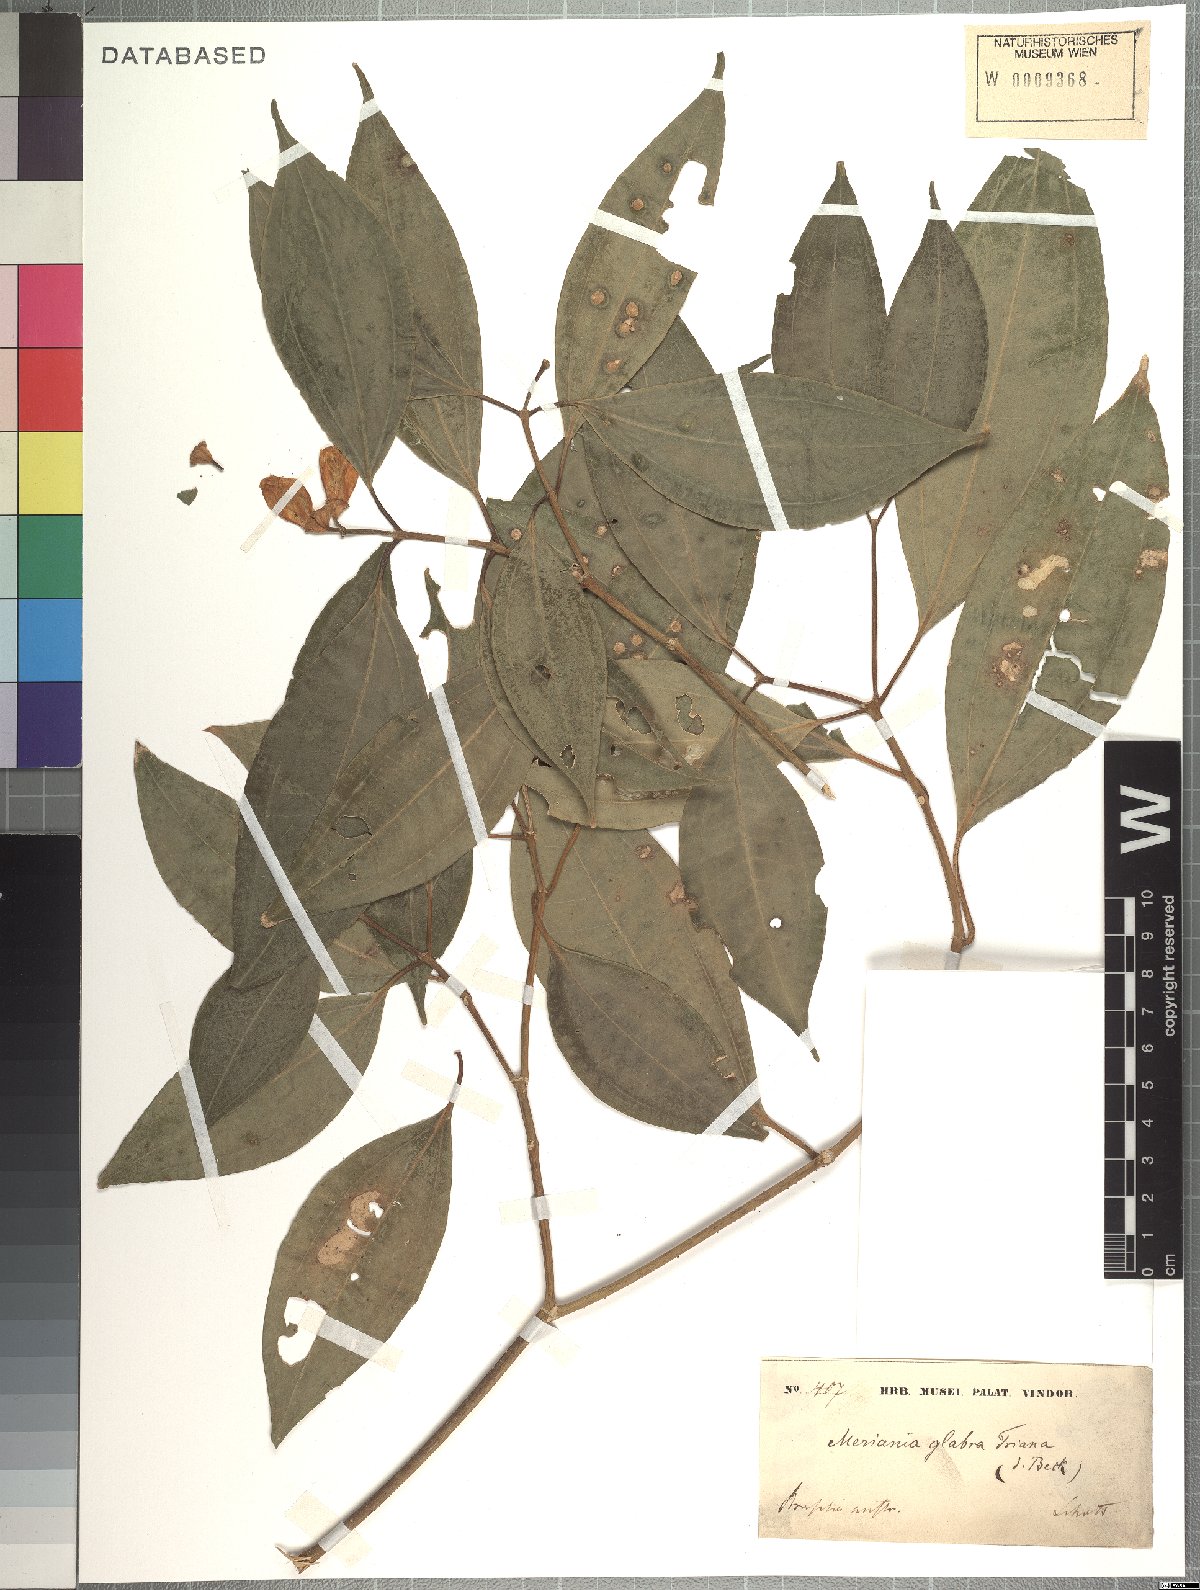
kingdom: Plantae
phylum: Tracheophyta
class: Magnoliopsida
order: Myrtales
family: Melastomataceae
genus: Meriania
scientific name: Meriania glabra
